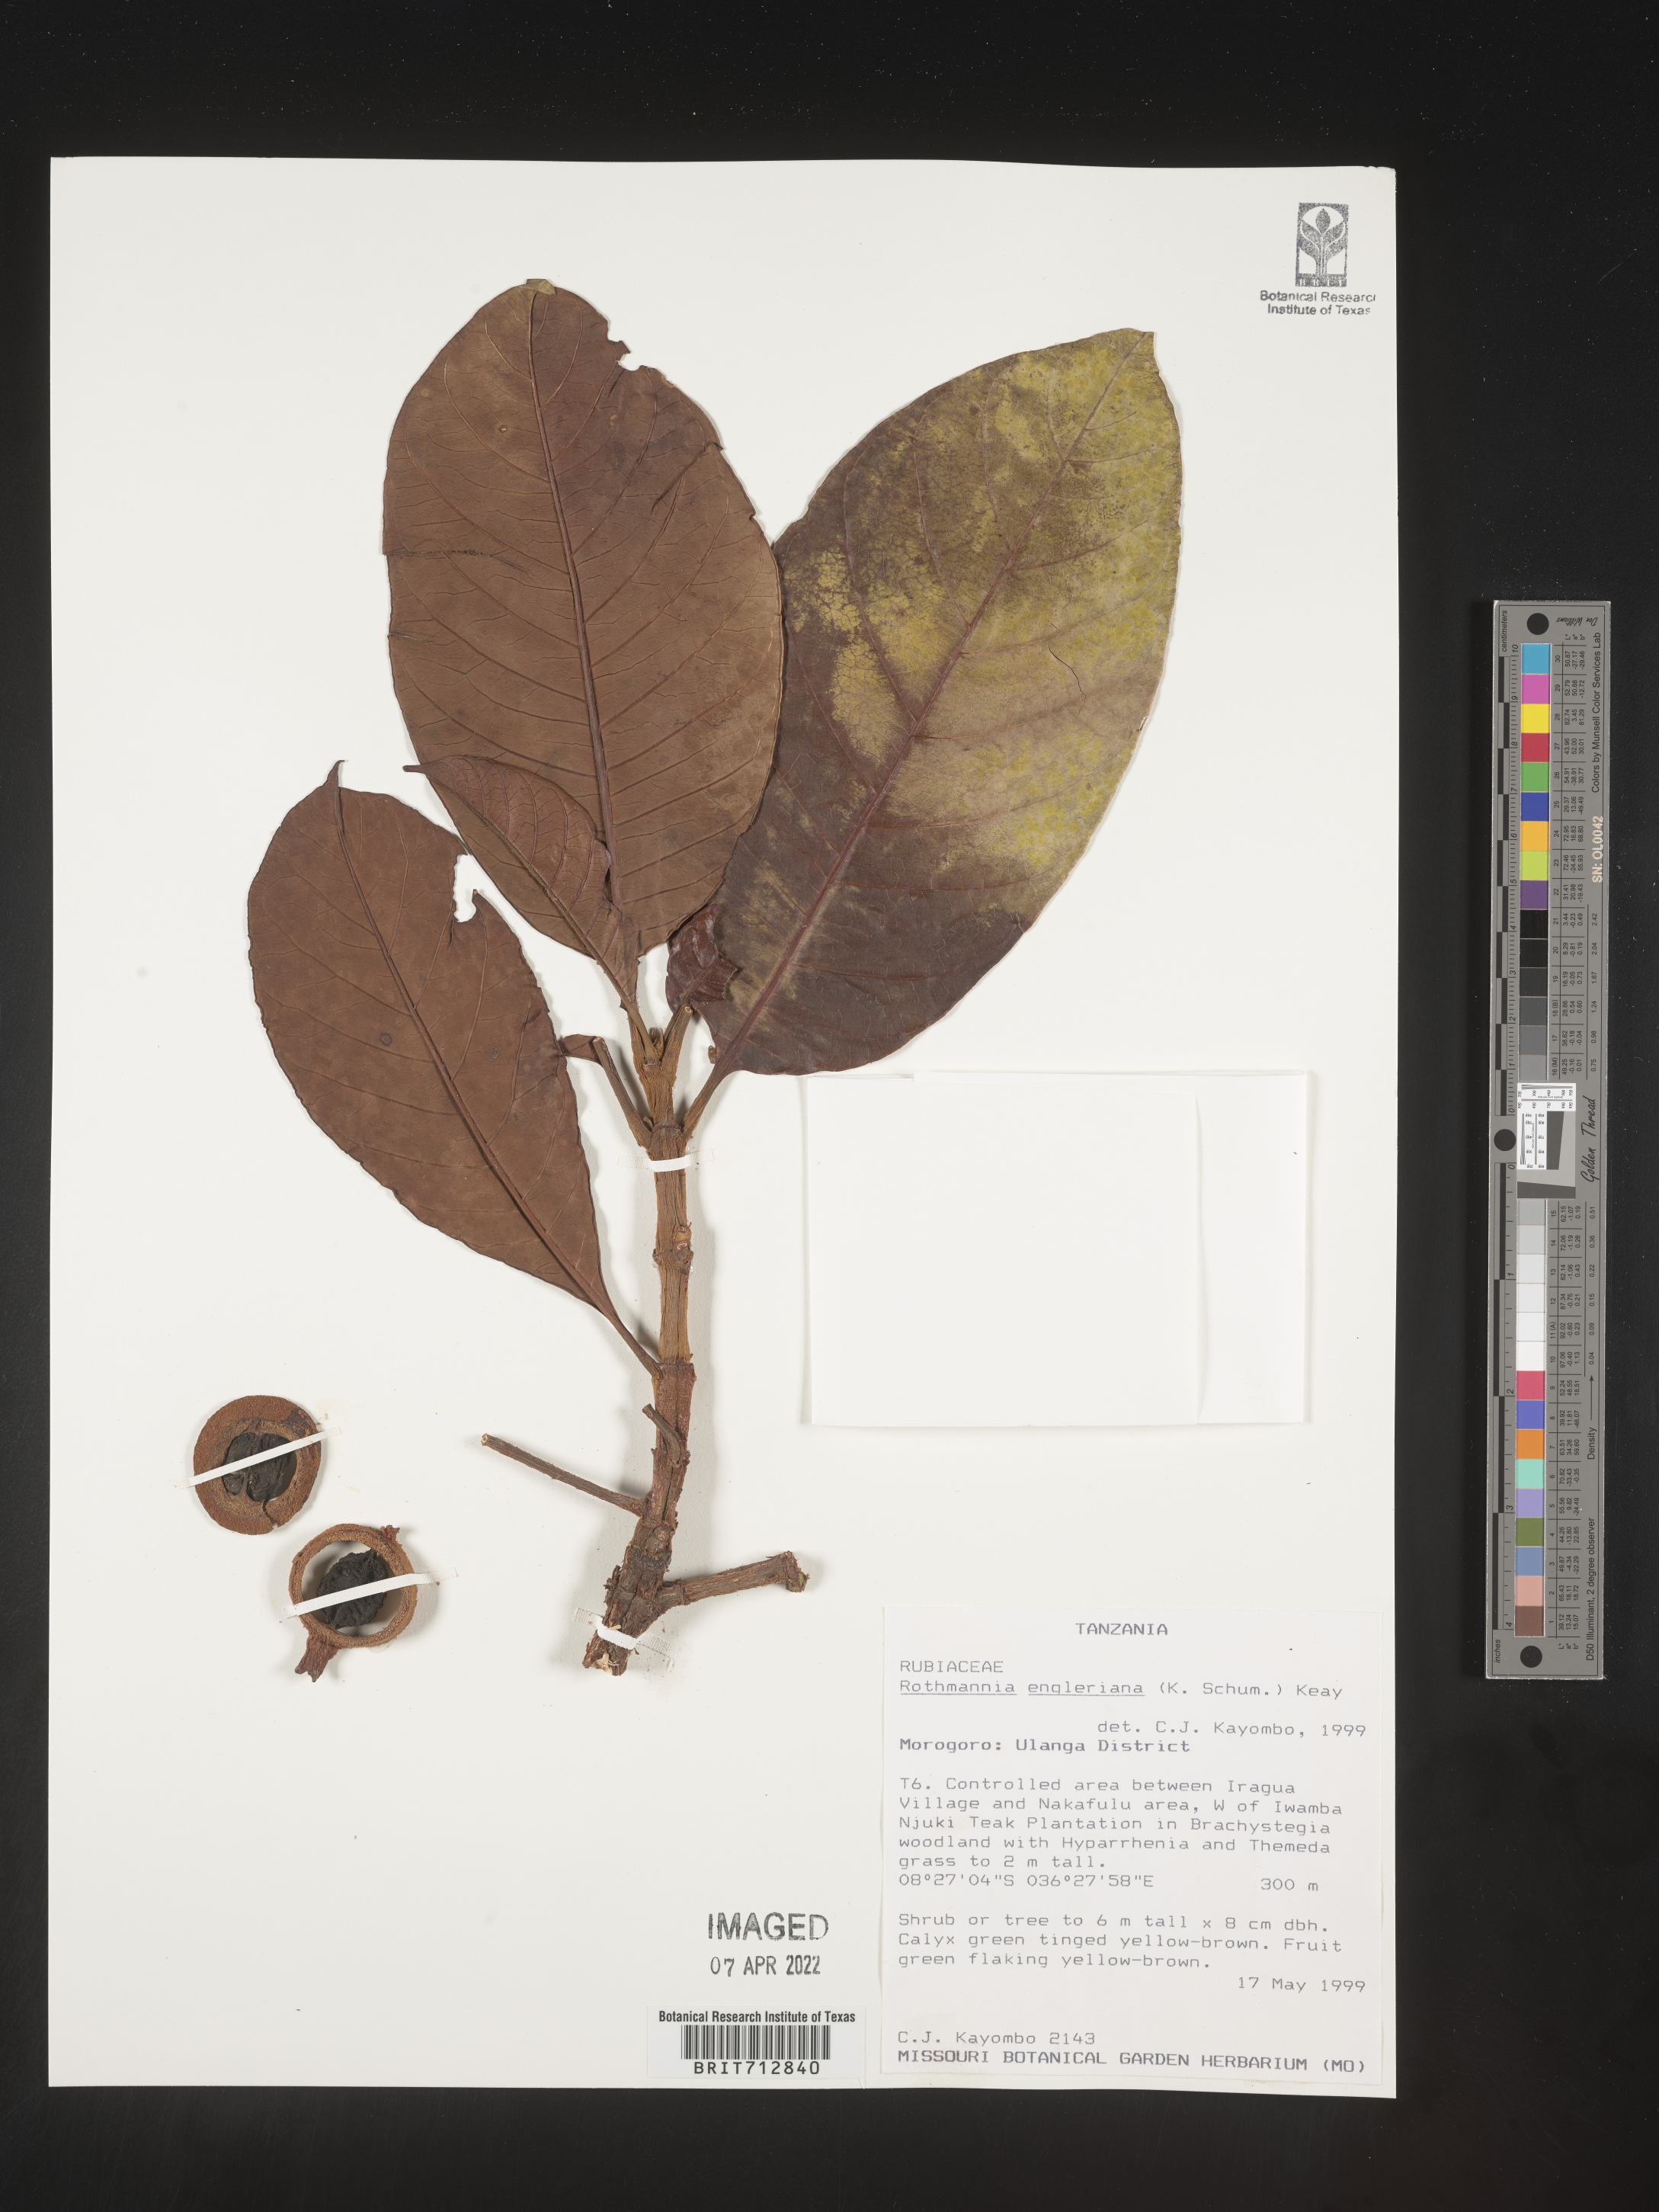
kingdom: Plantae
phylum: Tracheophyta
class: Magnoliopsida
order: Gentianales
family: Rubiaceae
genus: Rothmannia
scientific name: Rothmannia
